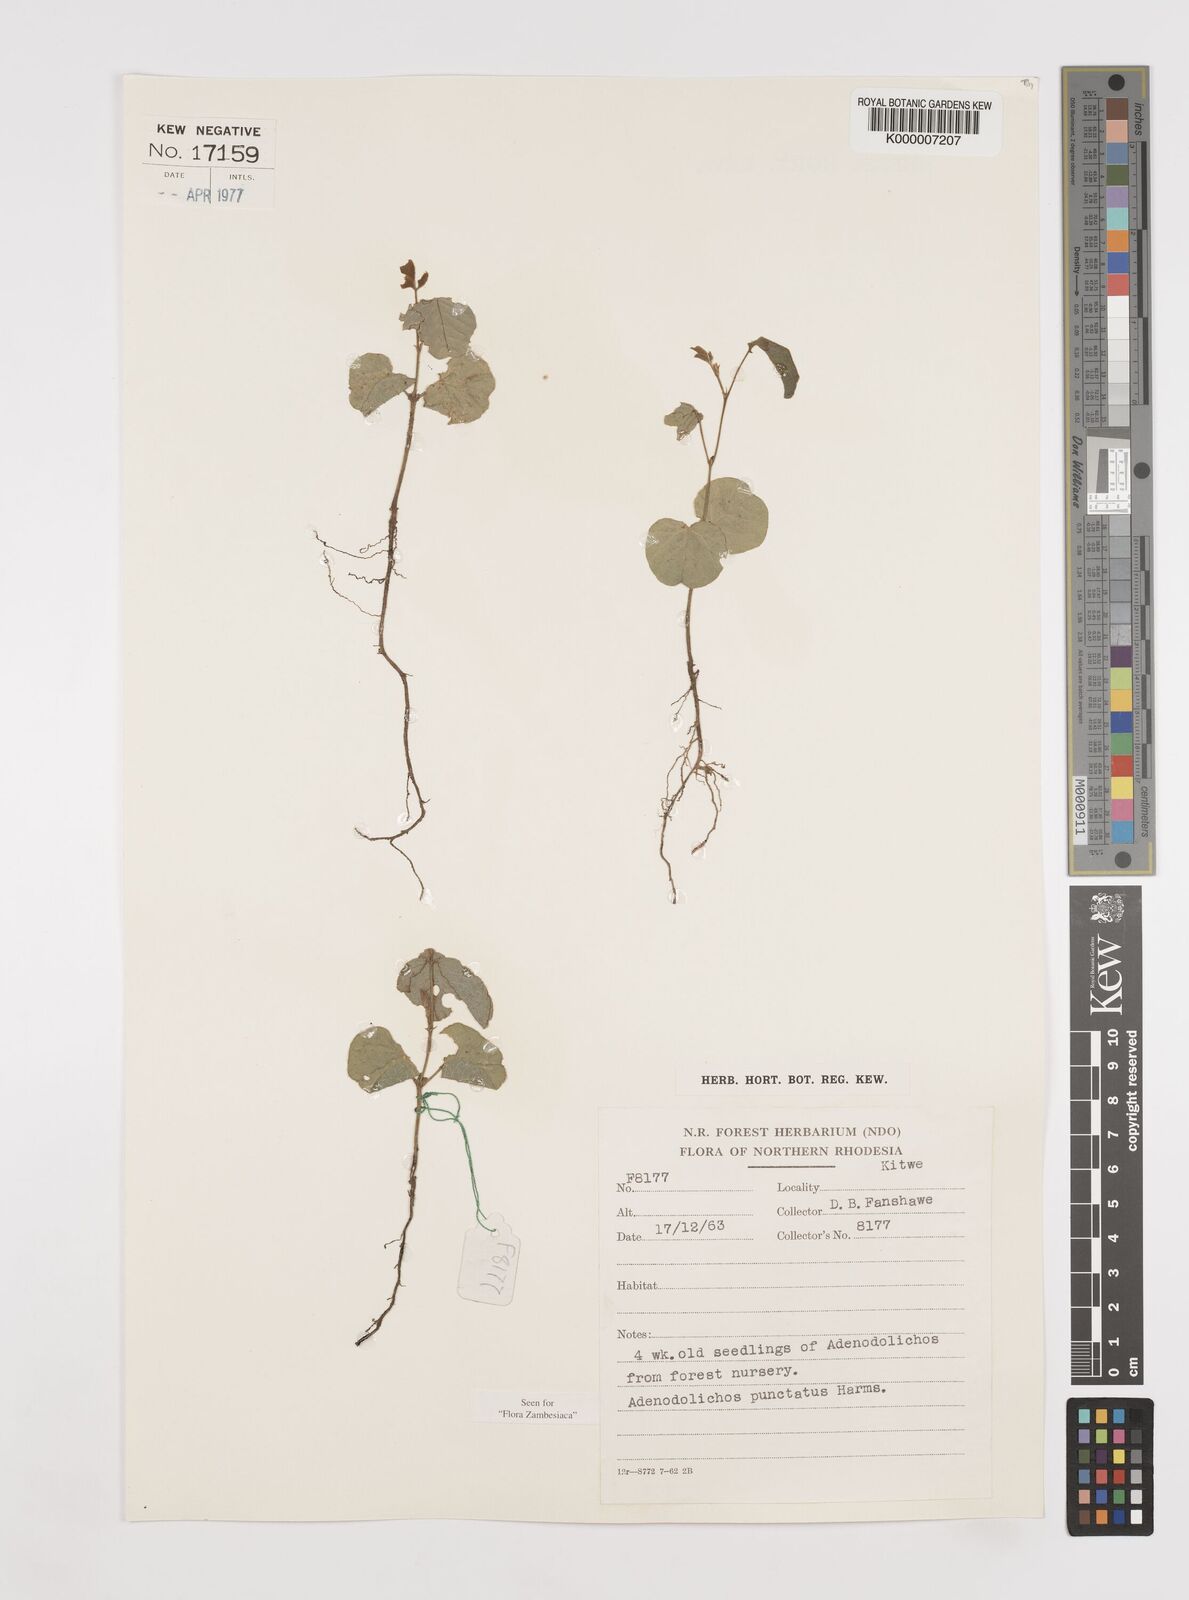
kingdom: Plantae
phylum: Tracheophyta
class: Magnoliopsida
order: Fabales
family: Fabaceae
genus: Adenodolichos
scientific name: Adenodolichos punctatus
